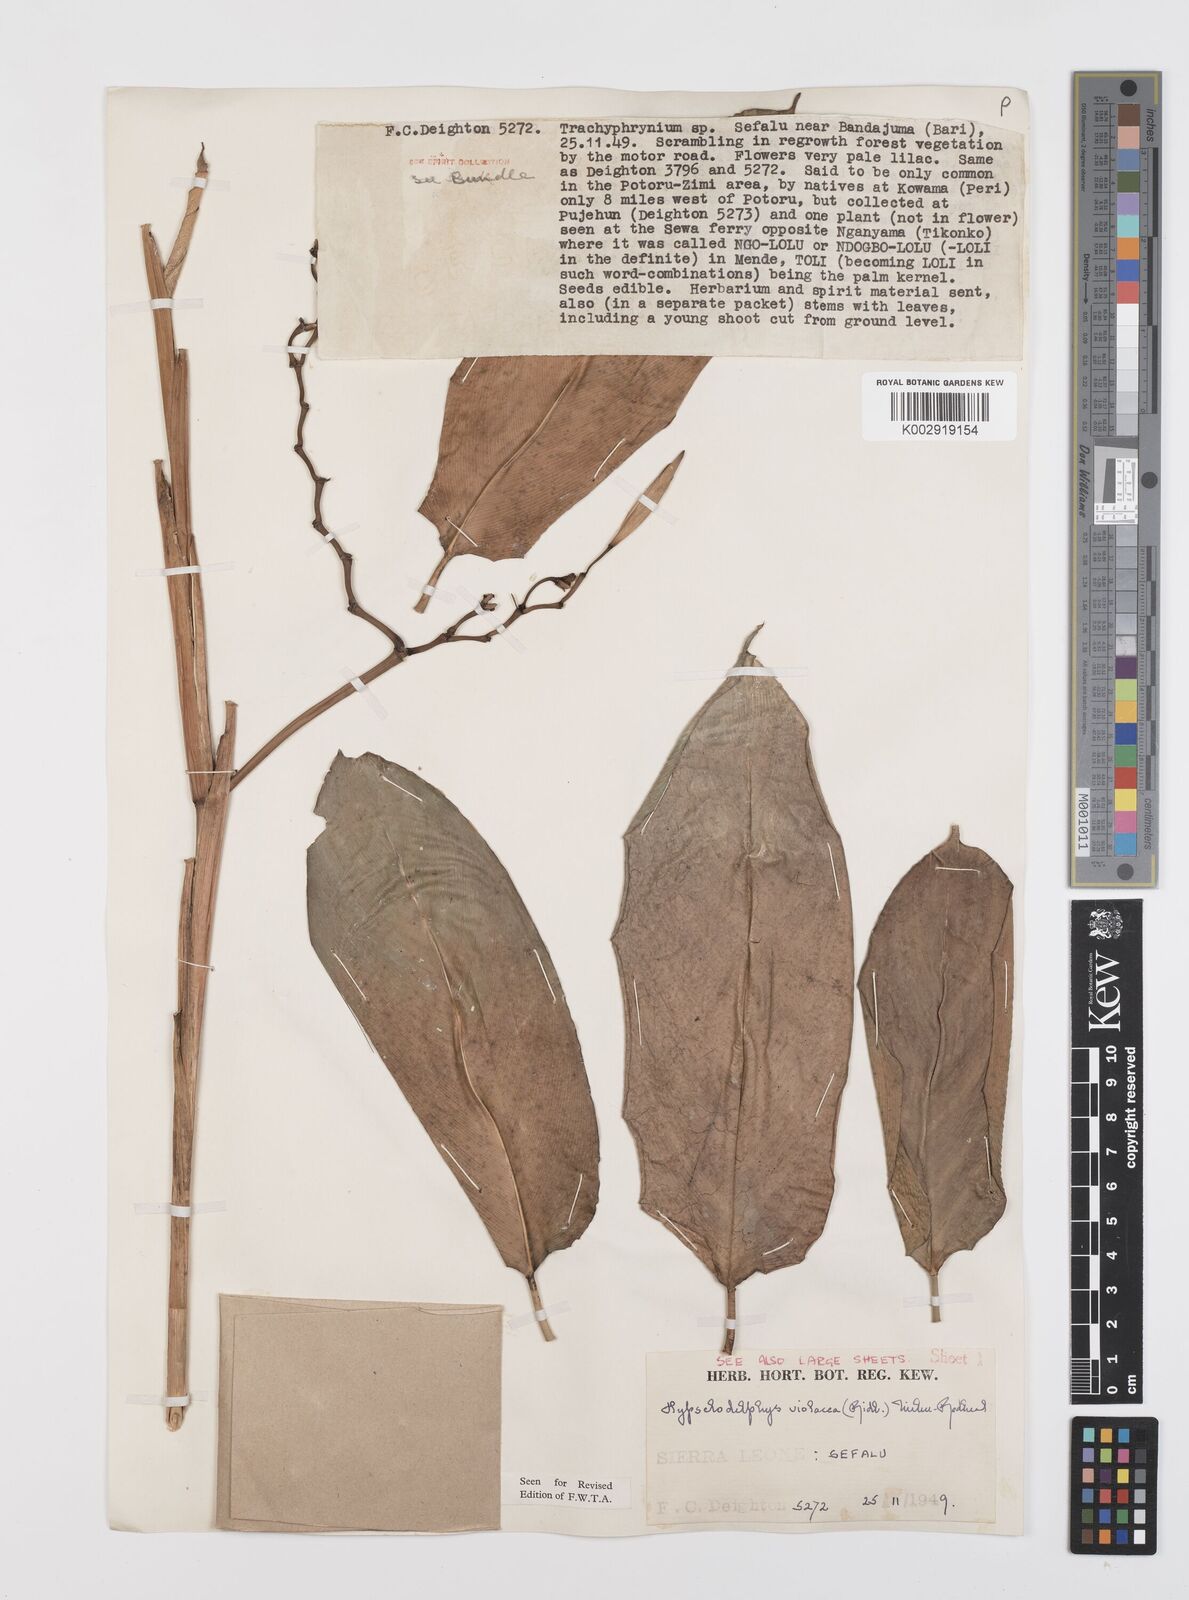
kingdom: Plantae
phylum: Tracheophyta
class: Liliopsida
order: Zingiberales
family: Marantaceae
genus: Hypselodelphys
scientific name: Hypselodelphys violacea
